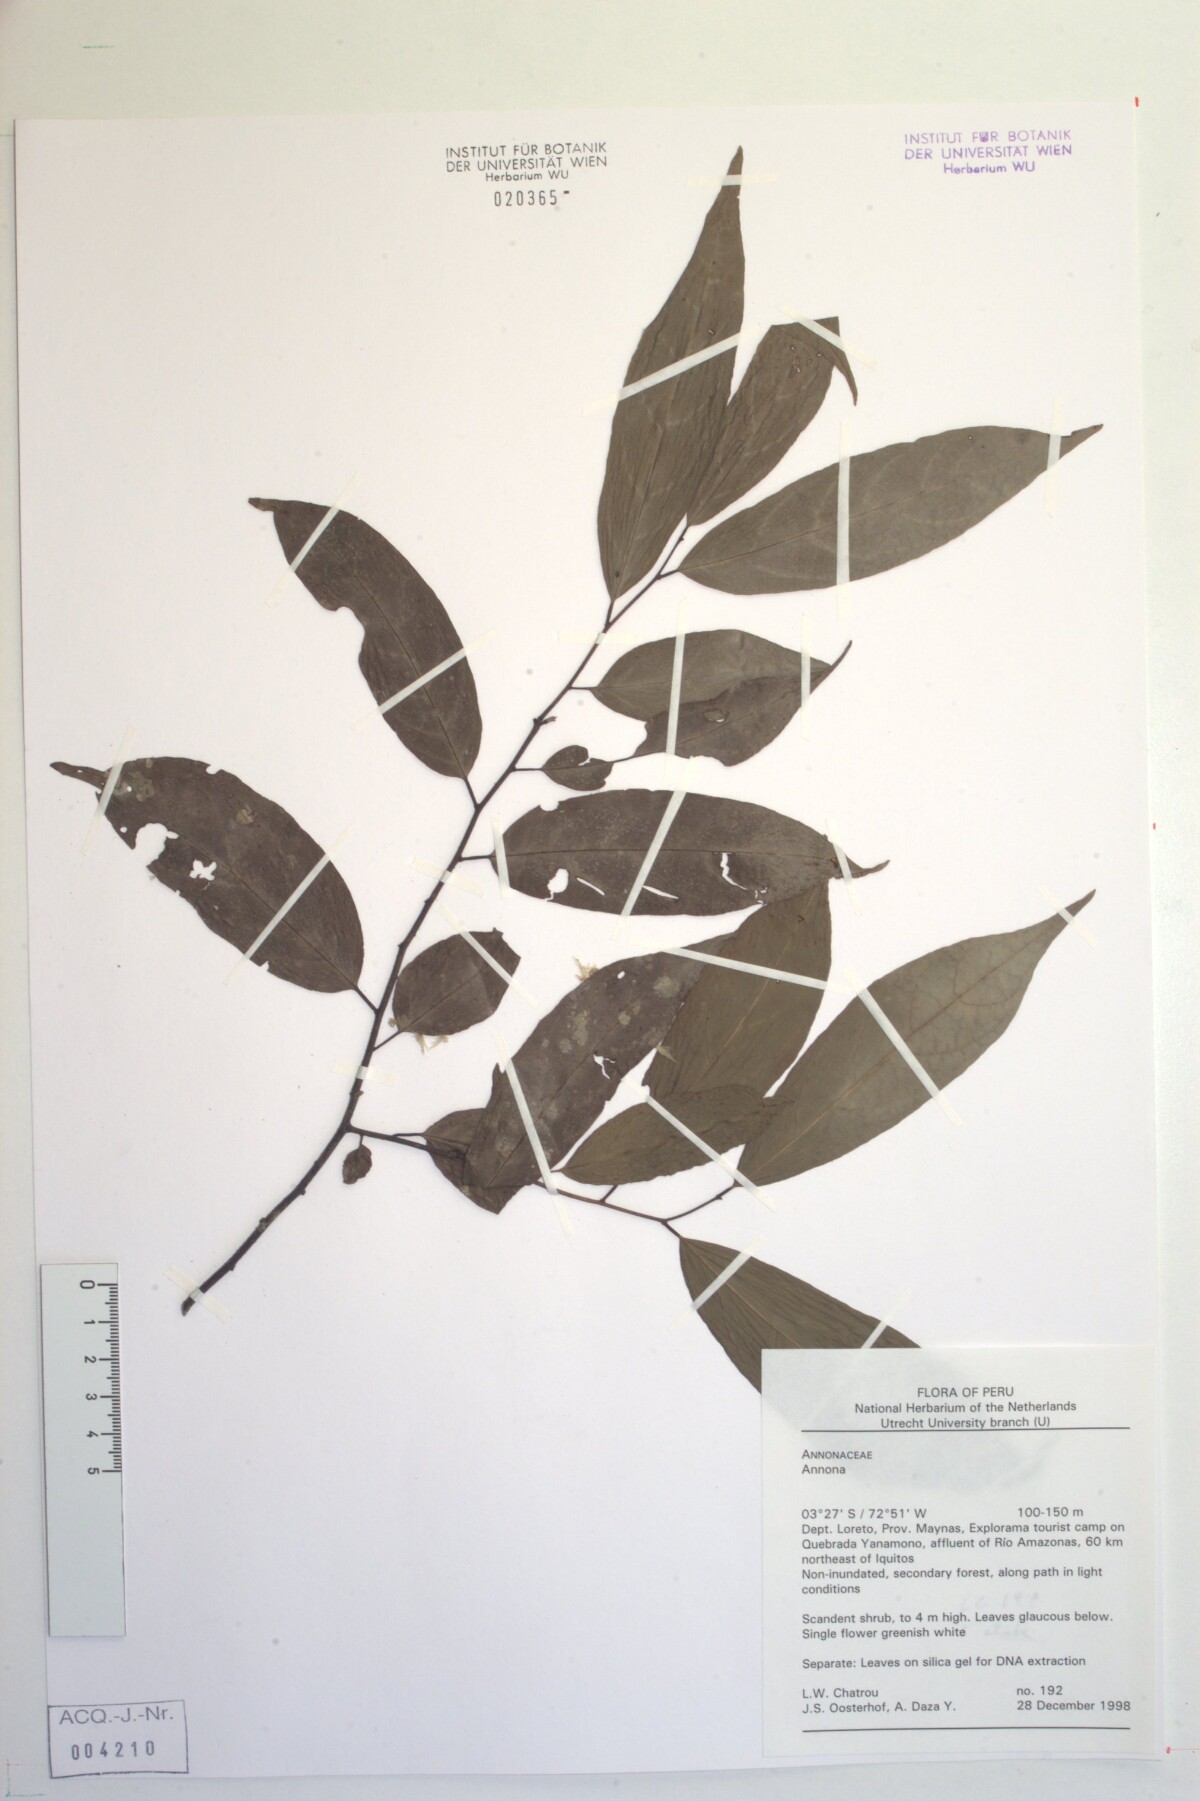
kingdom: Plantae
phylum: Tracheophyta
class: Magnoliopsida
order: Magnoliales
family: Annonaceae
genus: Annona
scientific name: Annona
